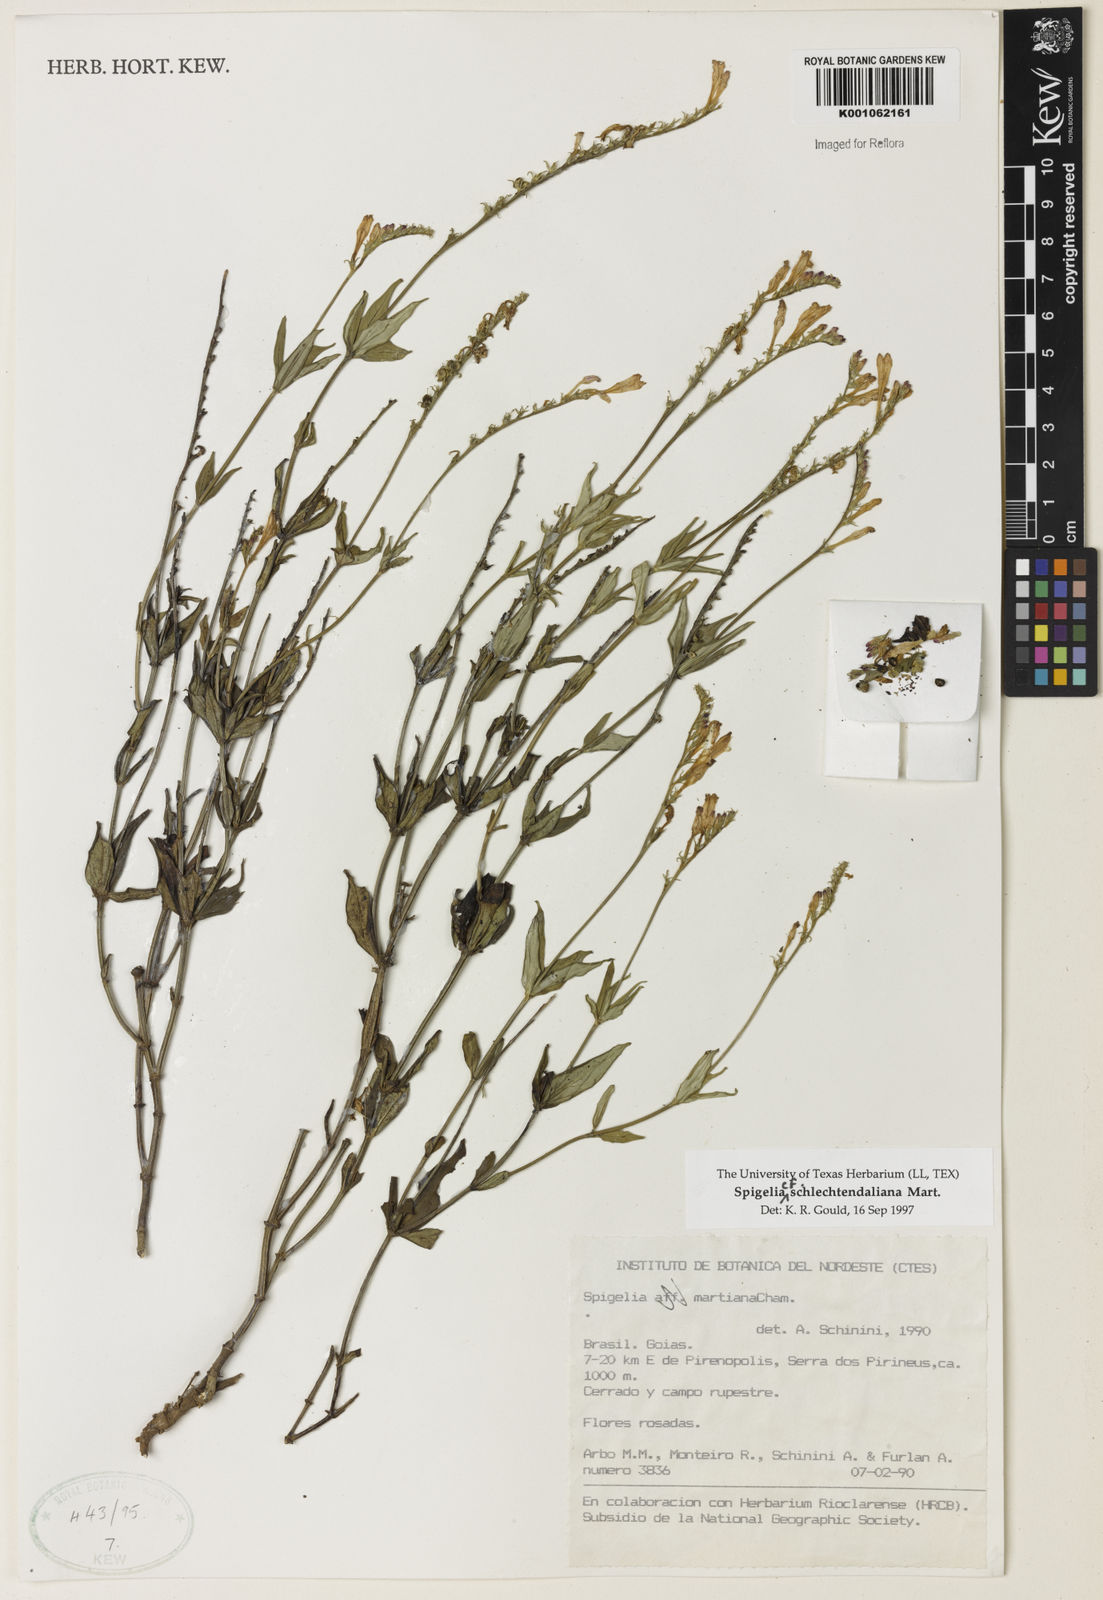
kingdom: Plantae
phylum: Tracheophyta
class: Magnoliopsida
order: Gentianales
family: Loganiaceae
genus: Spigelia
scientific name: Spigelia schlechtendaliana
